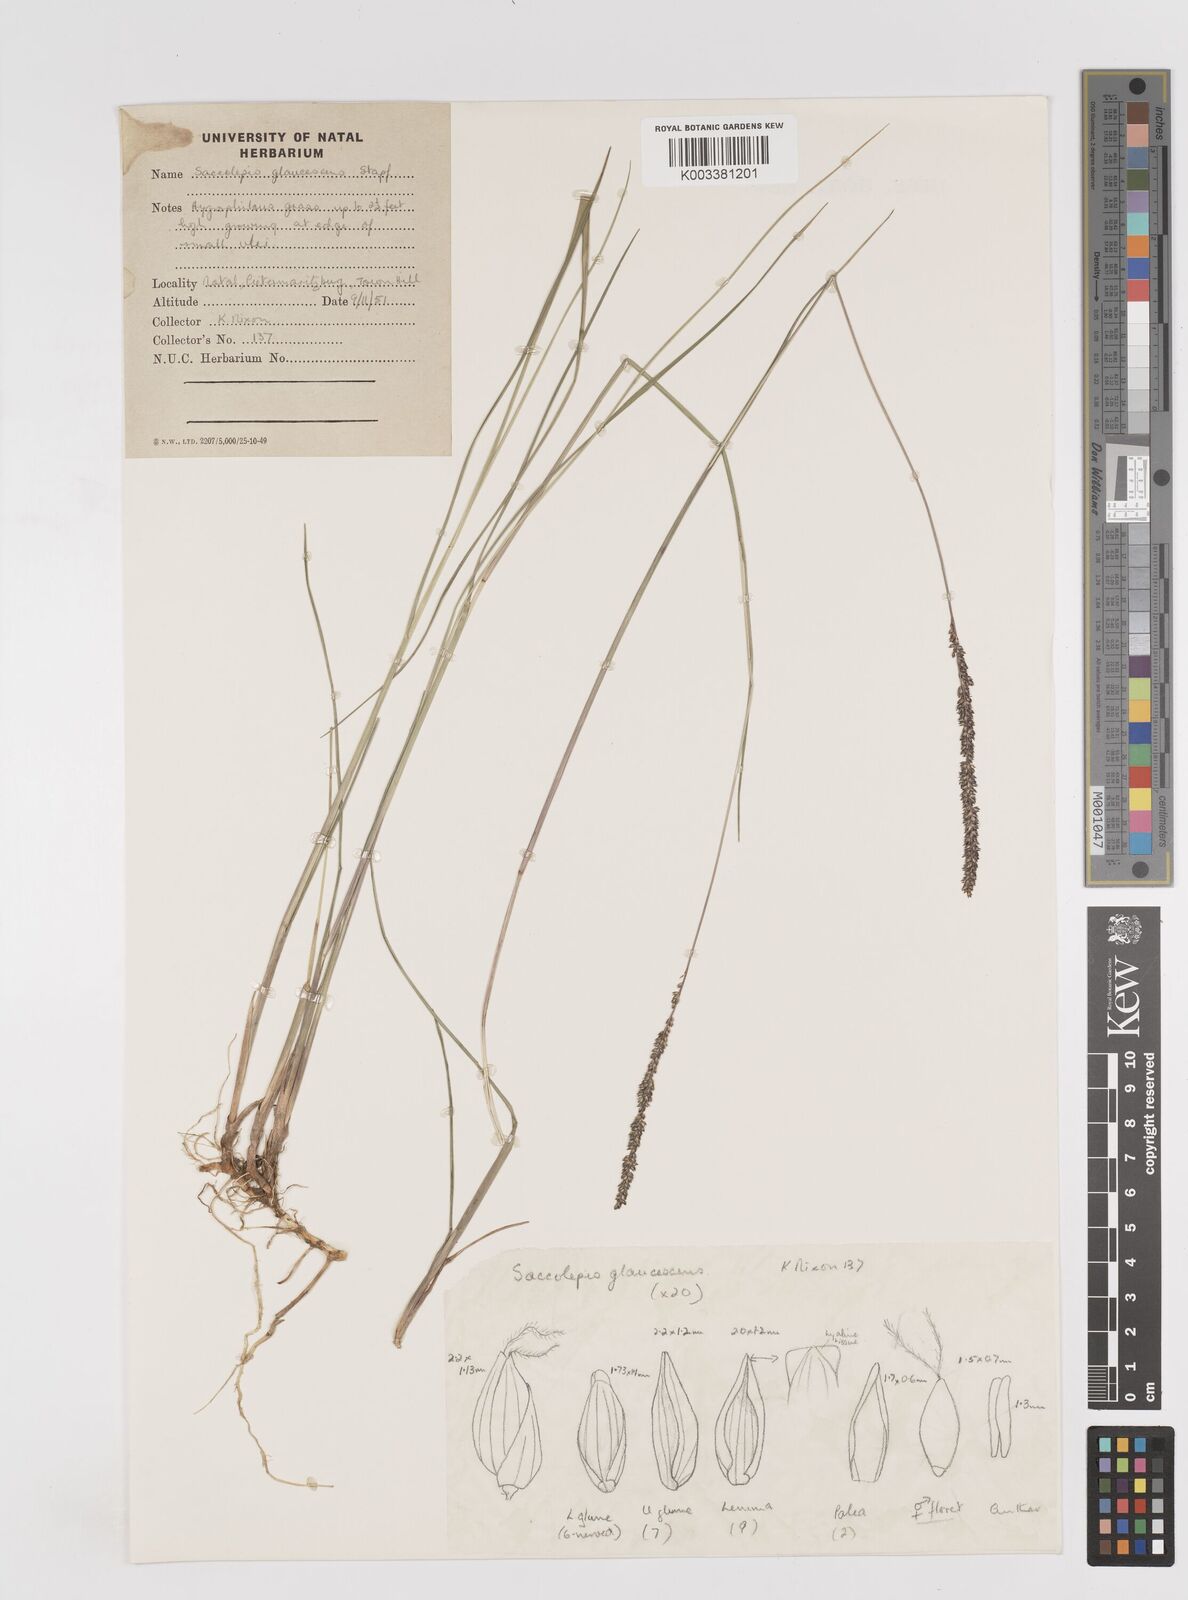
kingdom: Plantae
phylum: Tracheophyta
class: Liliopsida
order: Poales
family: Poaceae
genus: Sacciolepis
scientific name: Sacciolepis chevalieri
